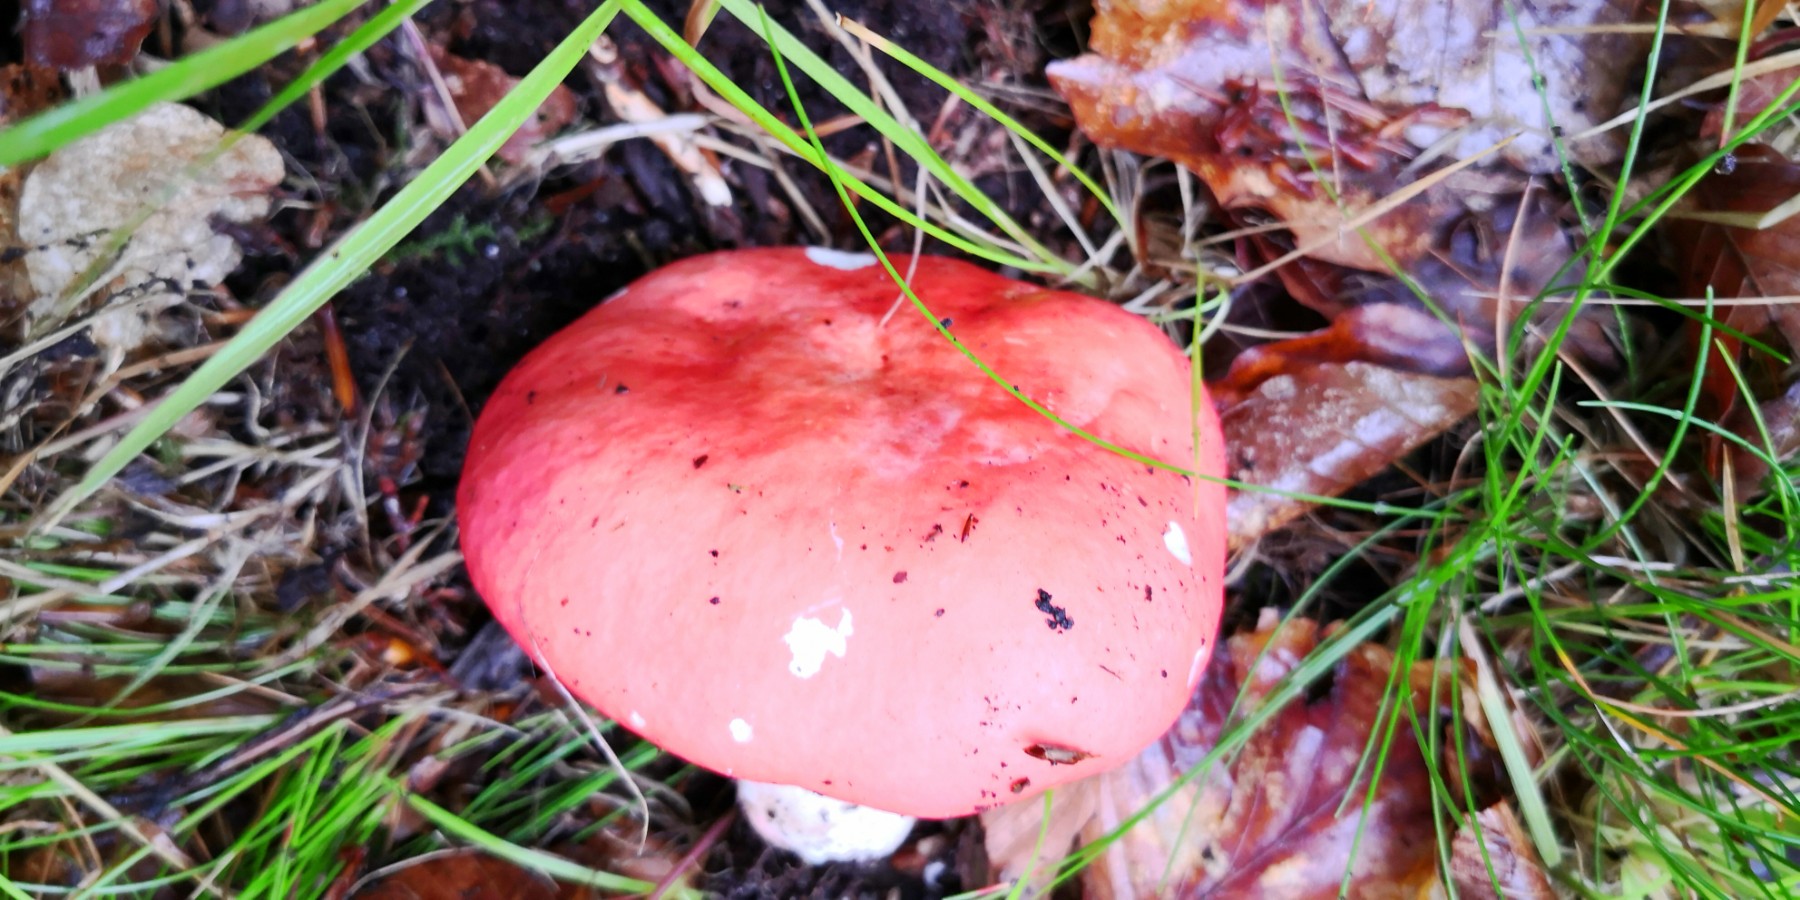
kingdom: Fungi
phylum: Basidiomycota
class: Agaricomycetes
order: Russulales
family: Russulaceae
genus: Russula
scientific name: Russula rosea
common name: fastkødet skørhat
